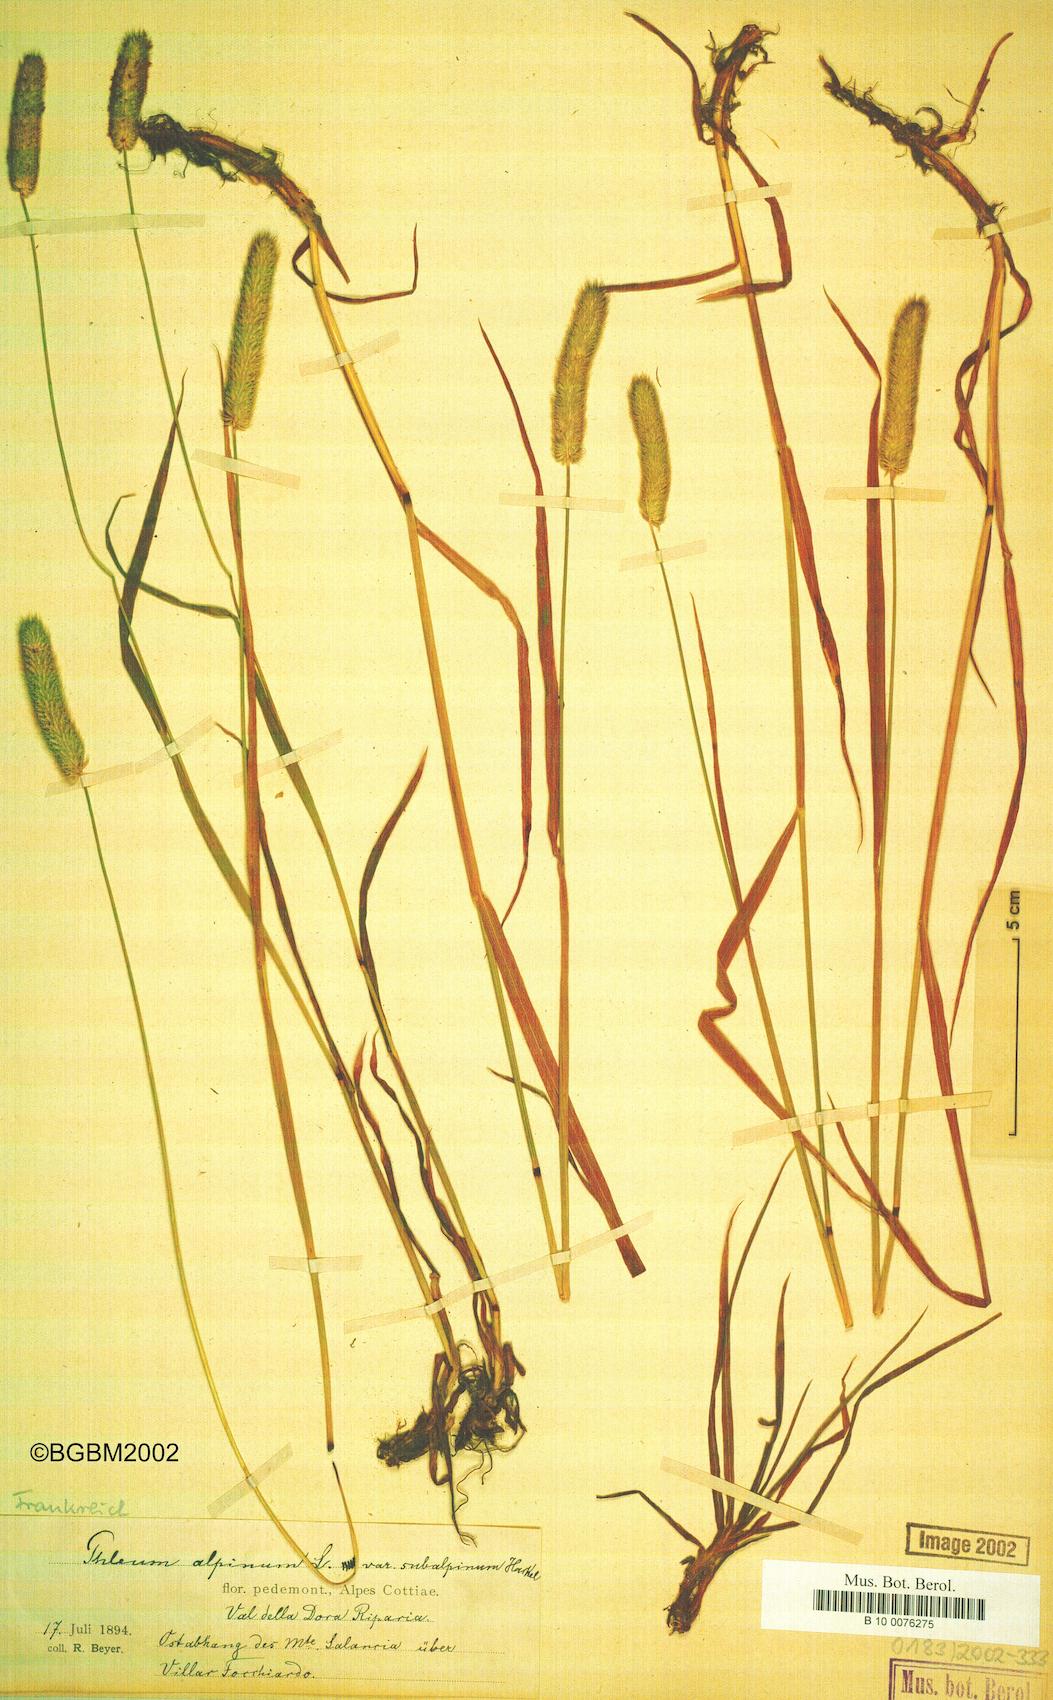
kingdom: Plantae
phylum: Tracheophyta
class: Liliopsida
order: Poales
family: Poaceae
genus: Phleum
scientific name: Phleum alpinum
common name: Alpine cat's-tail
